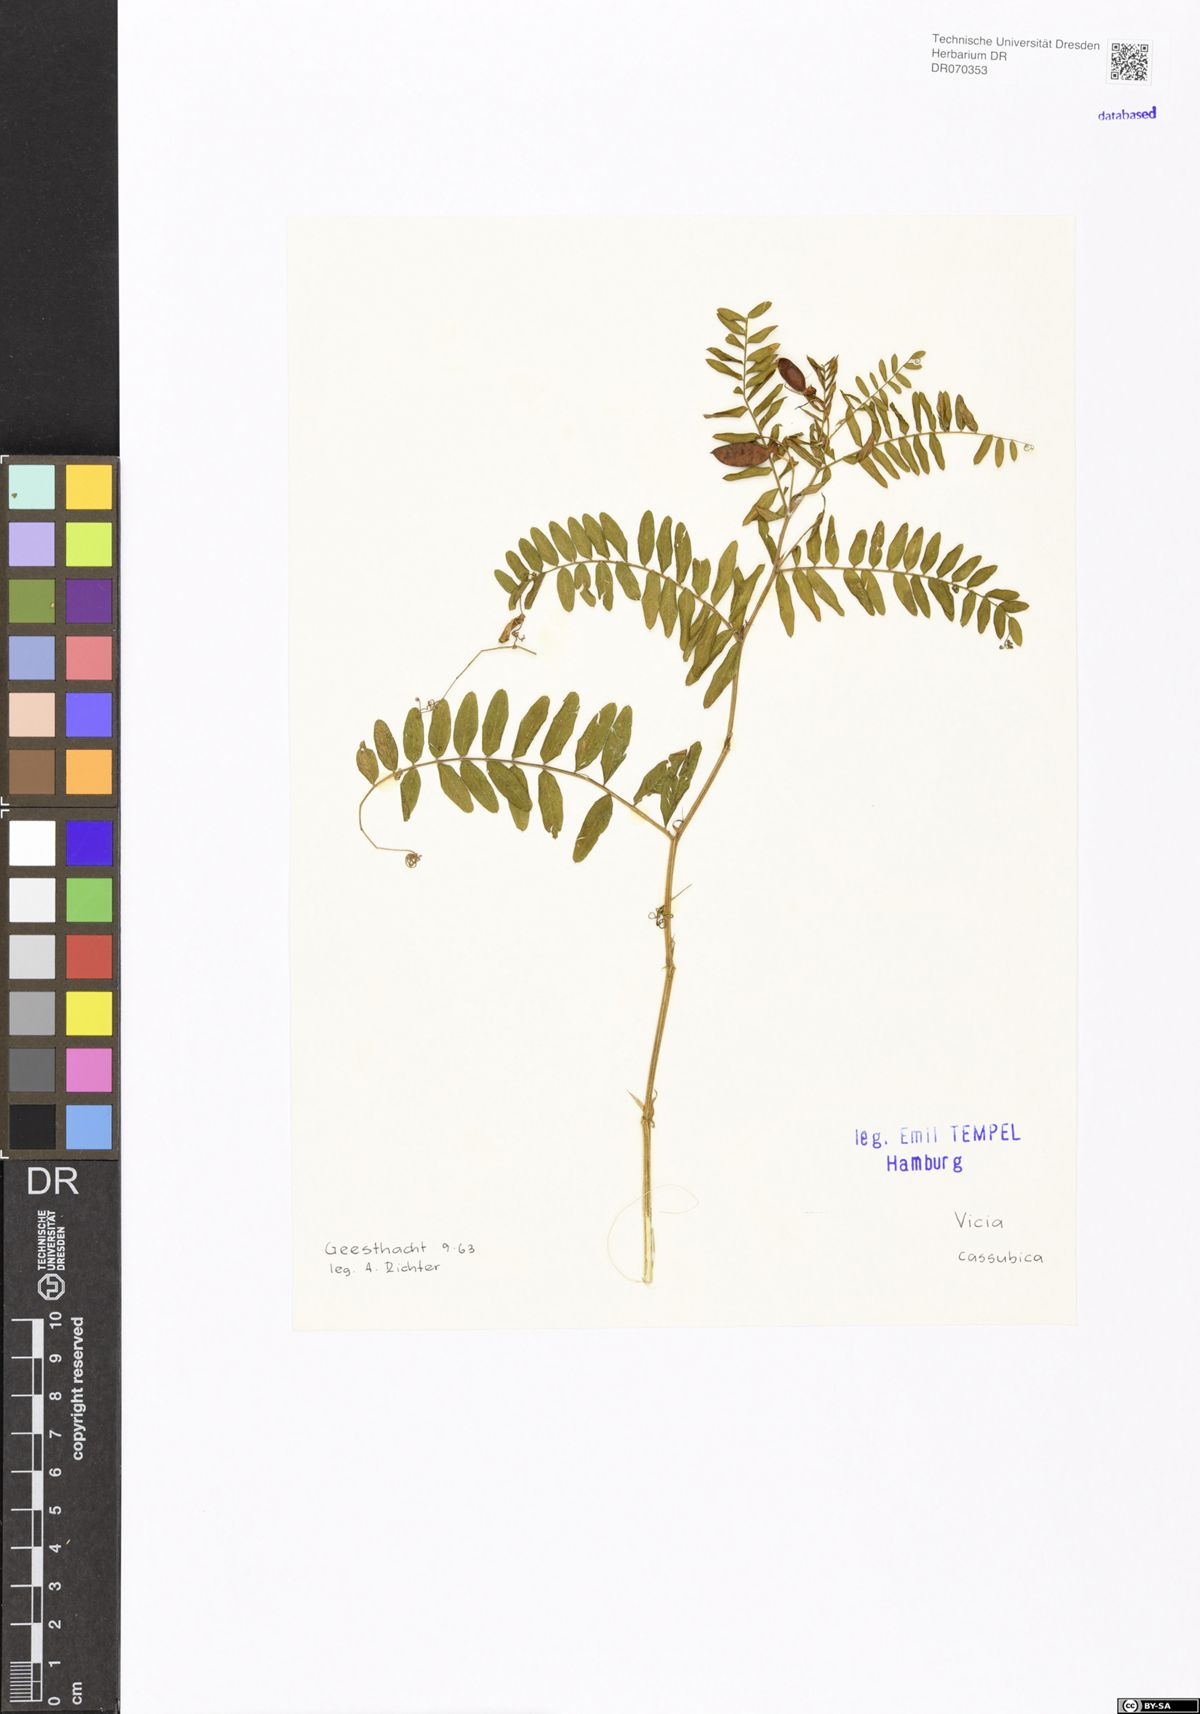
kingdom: Plantae
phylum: Tracheophyta
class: Magnoliopsida
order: Fabales
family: Fabaceae
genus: Vicia
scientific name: Vicia cassubica
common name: Danzig vetch
